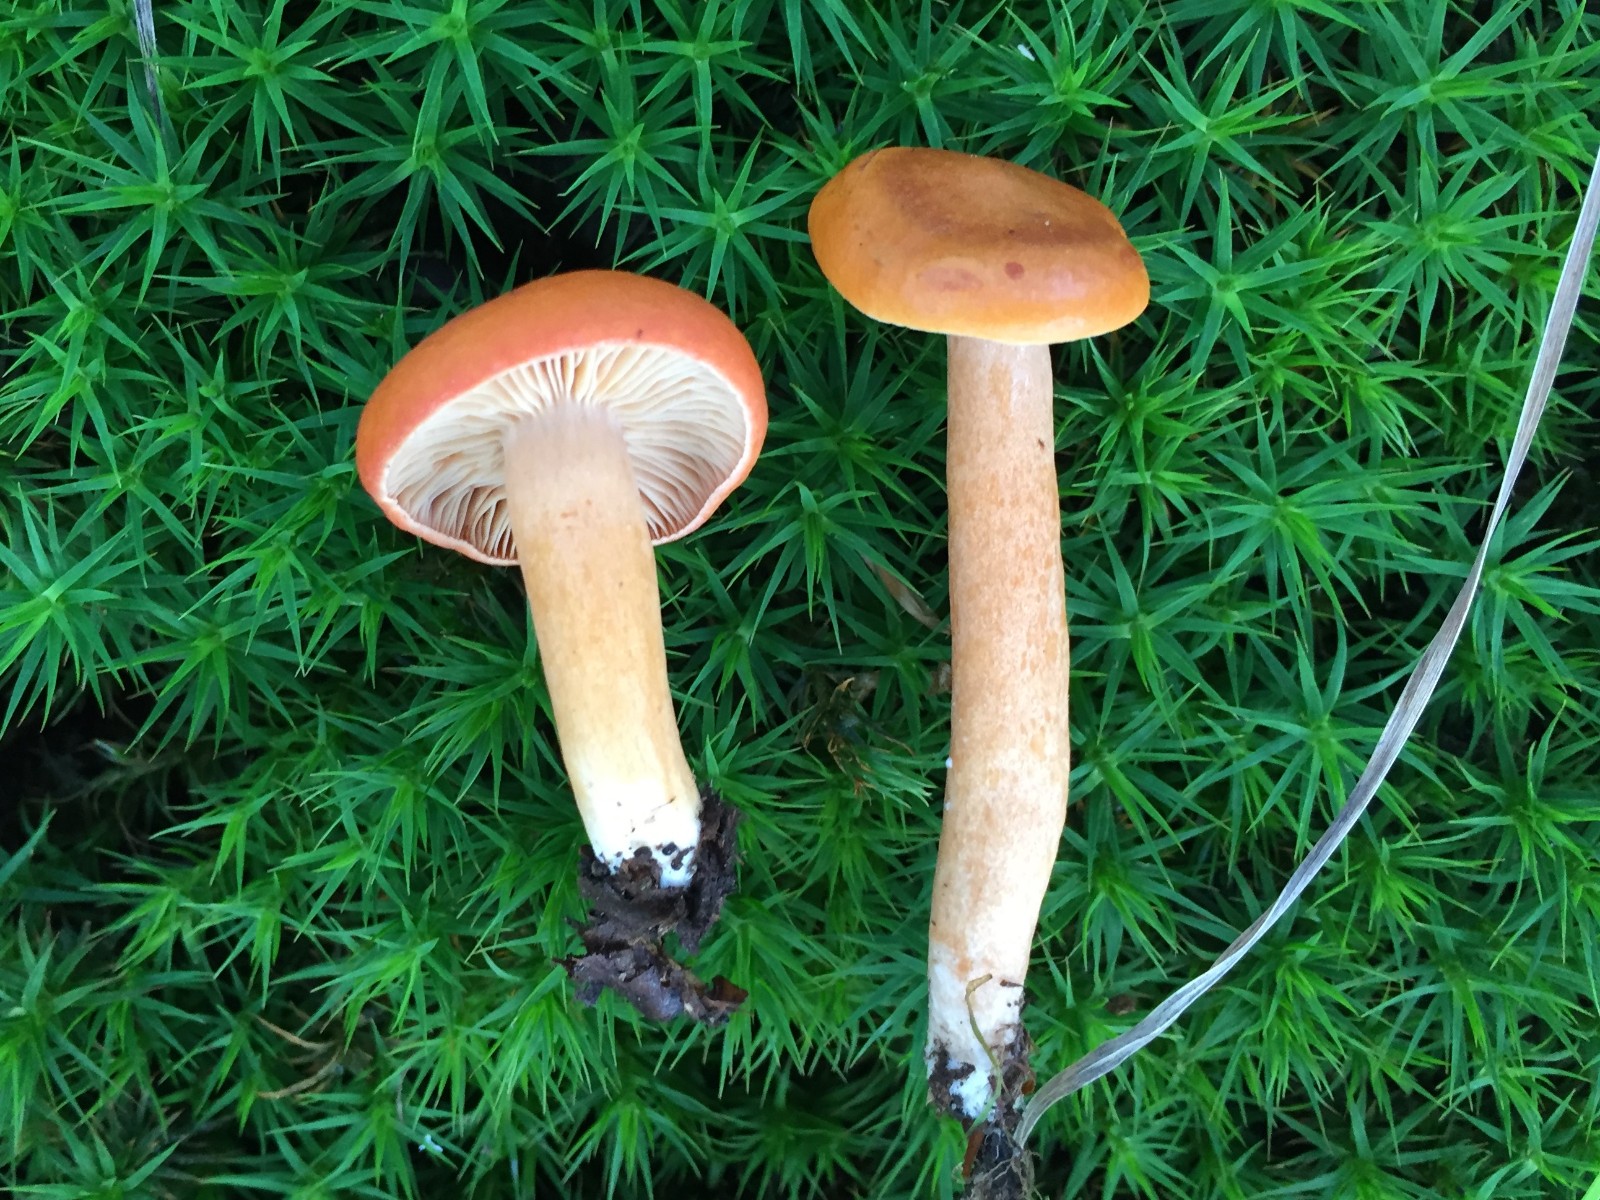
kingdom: Fungi
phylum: Basidiomycota
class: Agaricomycetes
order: Russulales
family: Russulaceae
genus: Lactarius
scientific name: Lactarius aurantiacus
